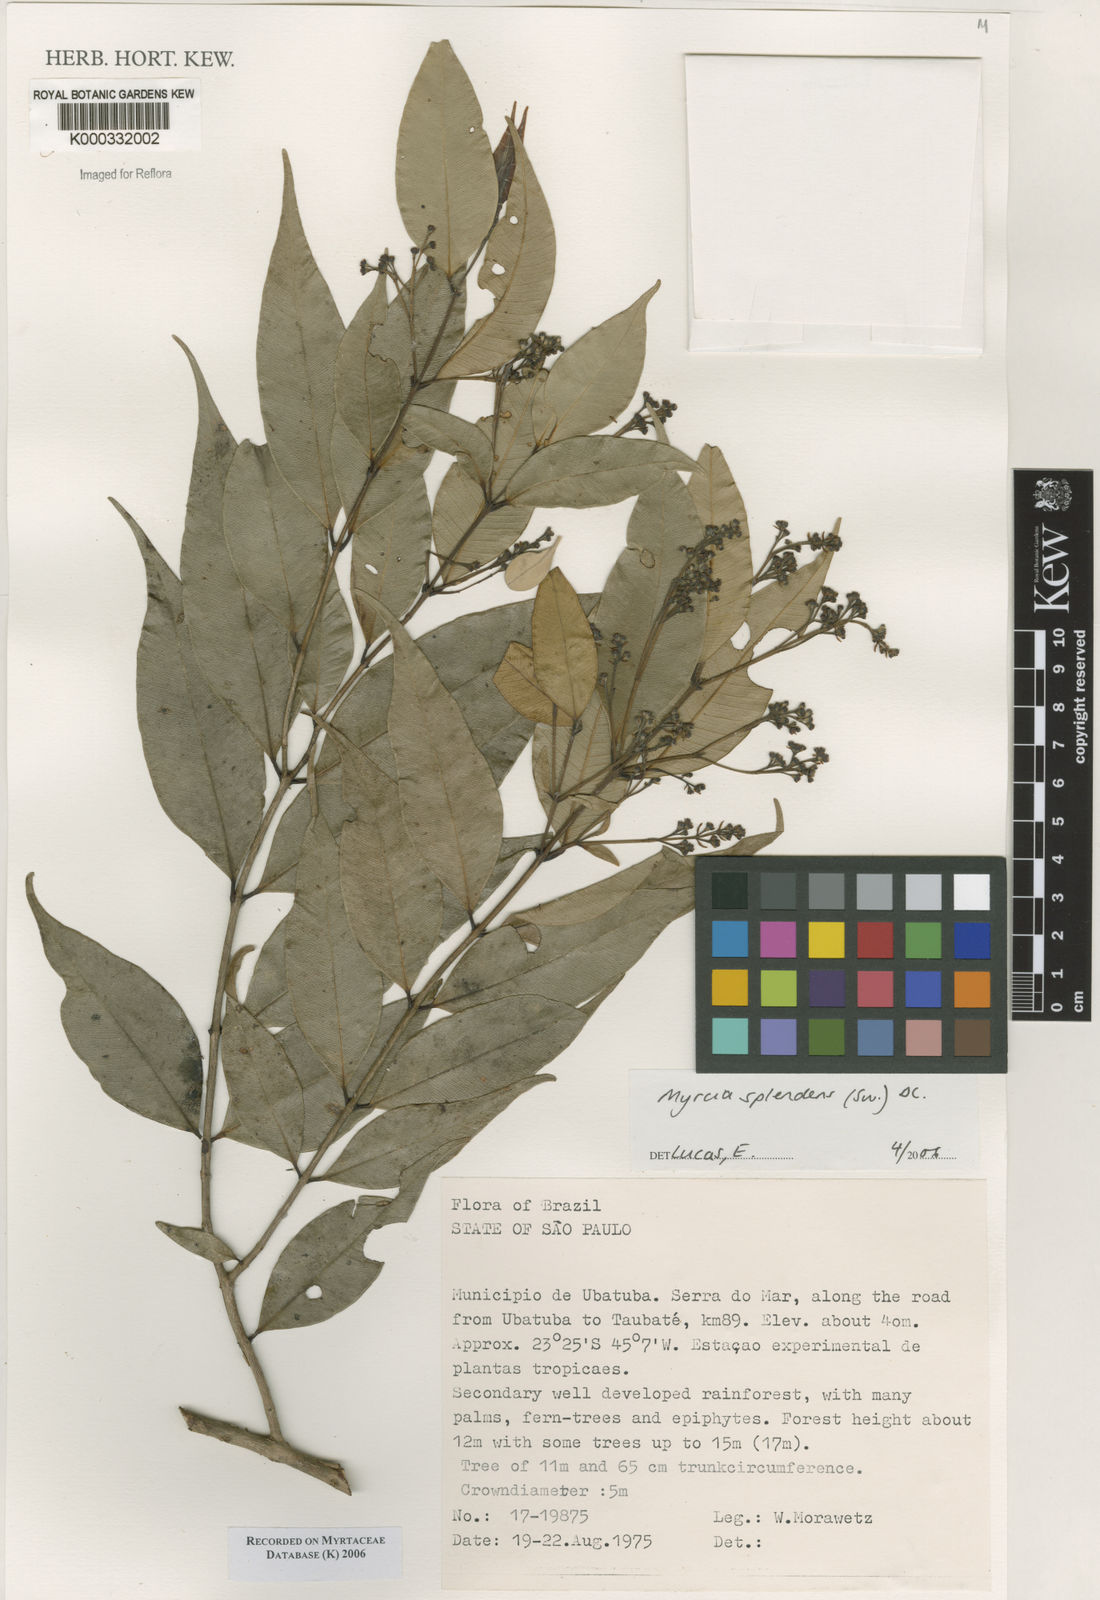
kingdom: Plantae
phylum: Tracheophyta
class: Magnoliopsida
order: Myrtales
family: Myrtaceae
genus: Myrcia
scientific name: Myrcia splendens
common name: Surinam cherry
